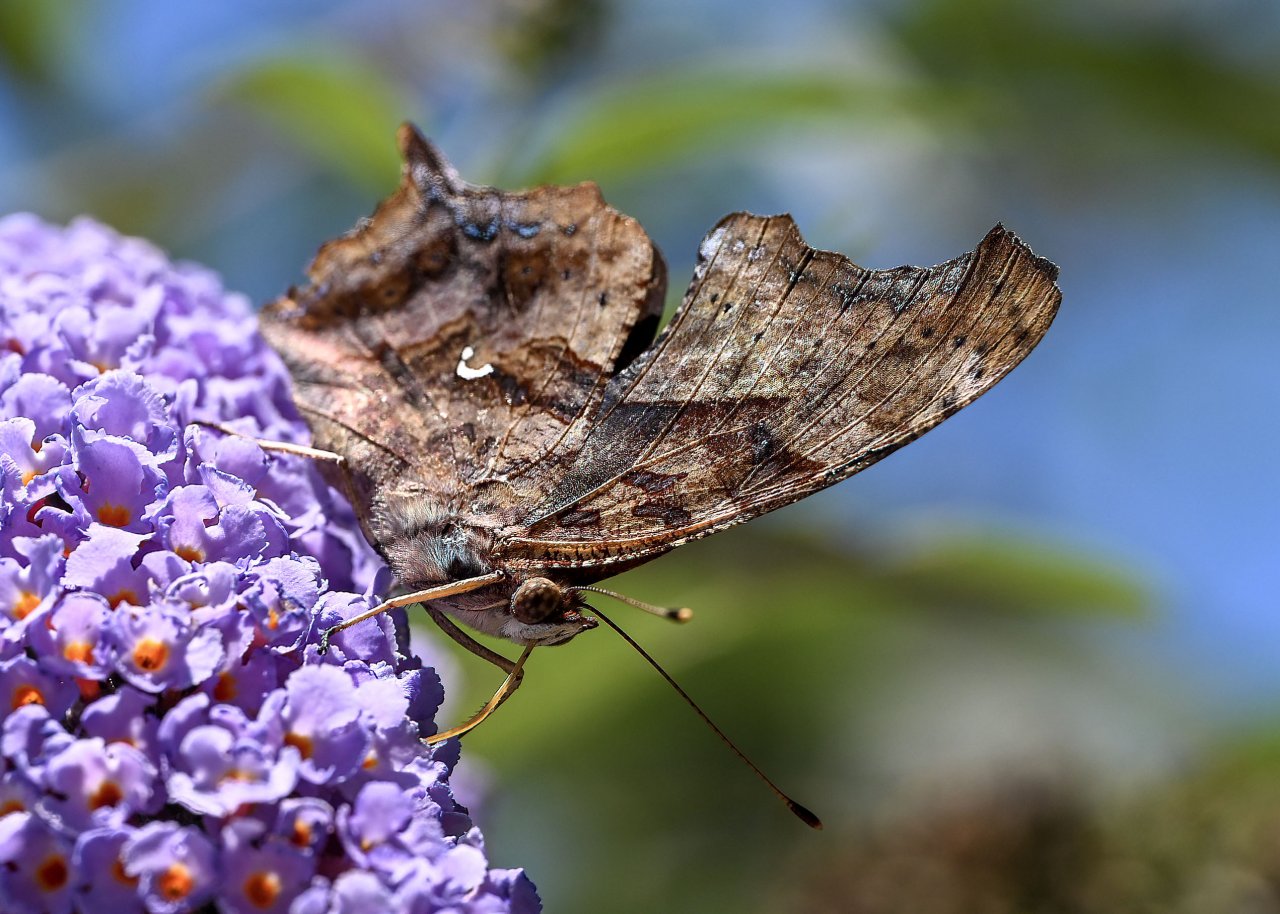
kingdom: Animalia
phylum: Arthropoda
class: Insecta
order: Lepidoptera
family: Nymphalidae
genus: Polygonia
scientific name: Polygonia interrogationis
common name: Question Mark
